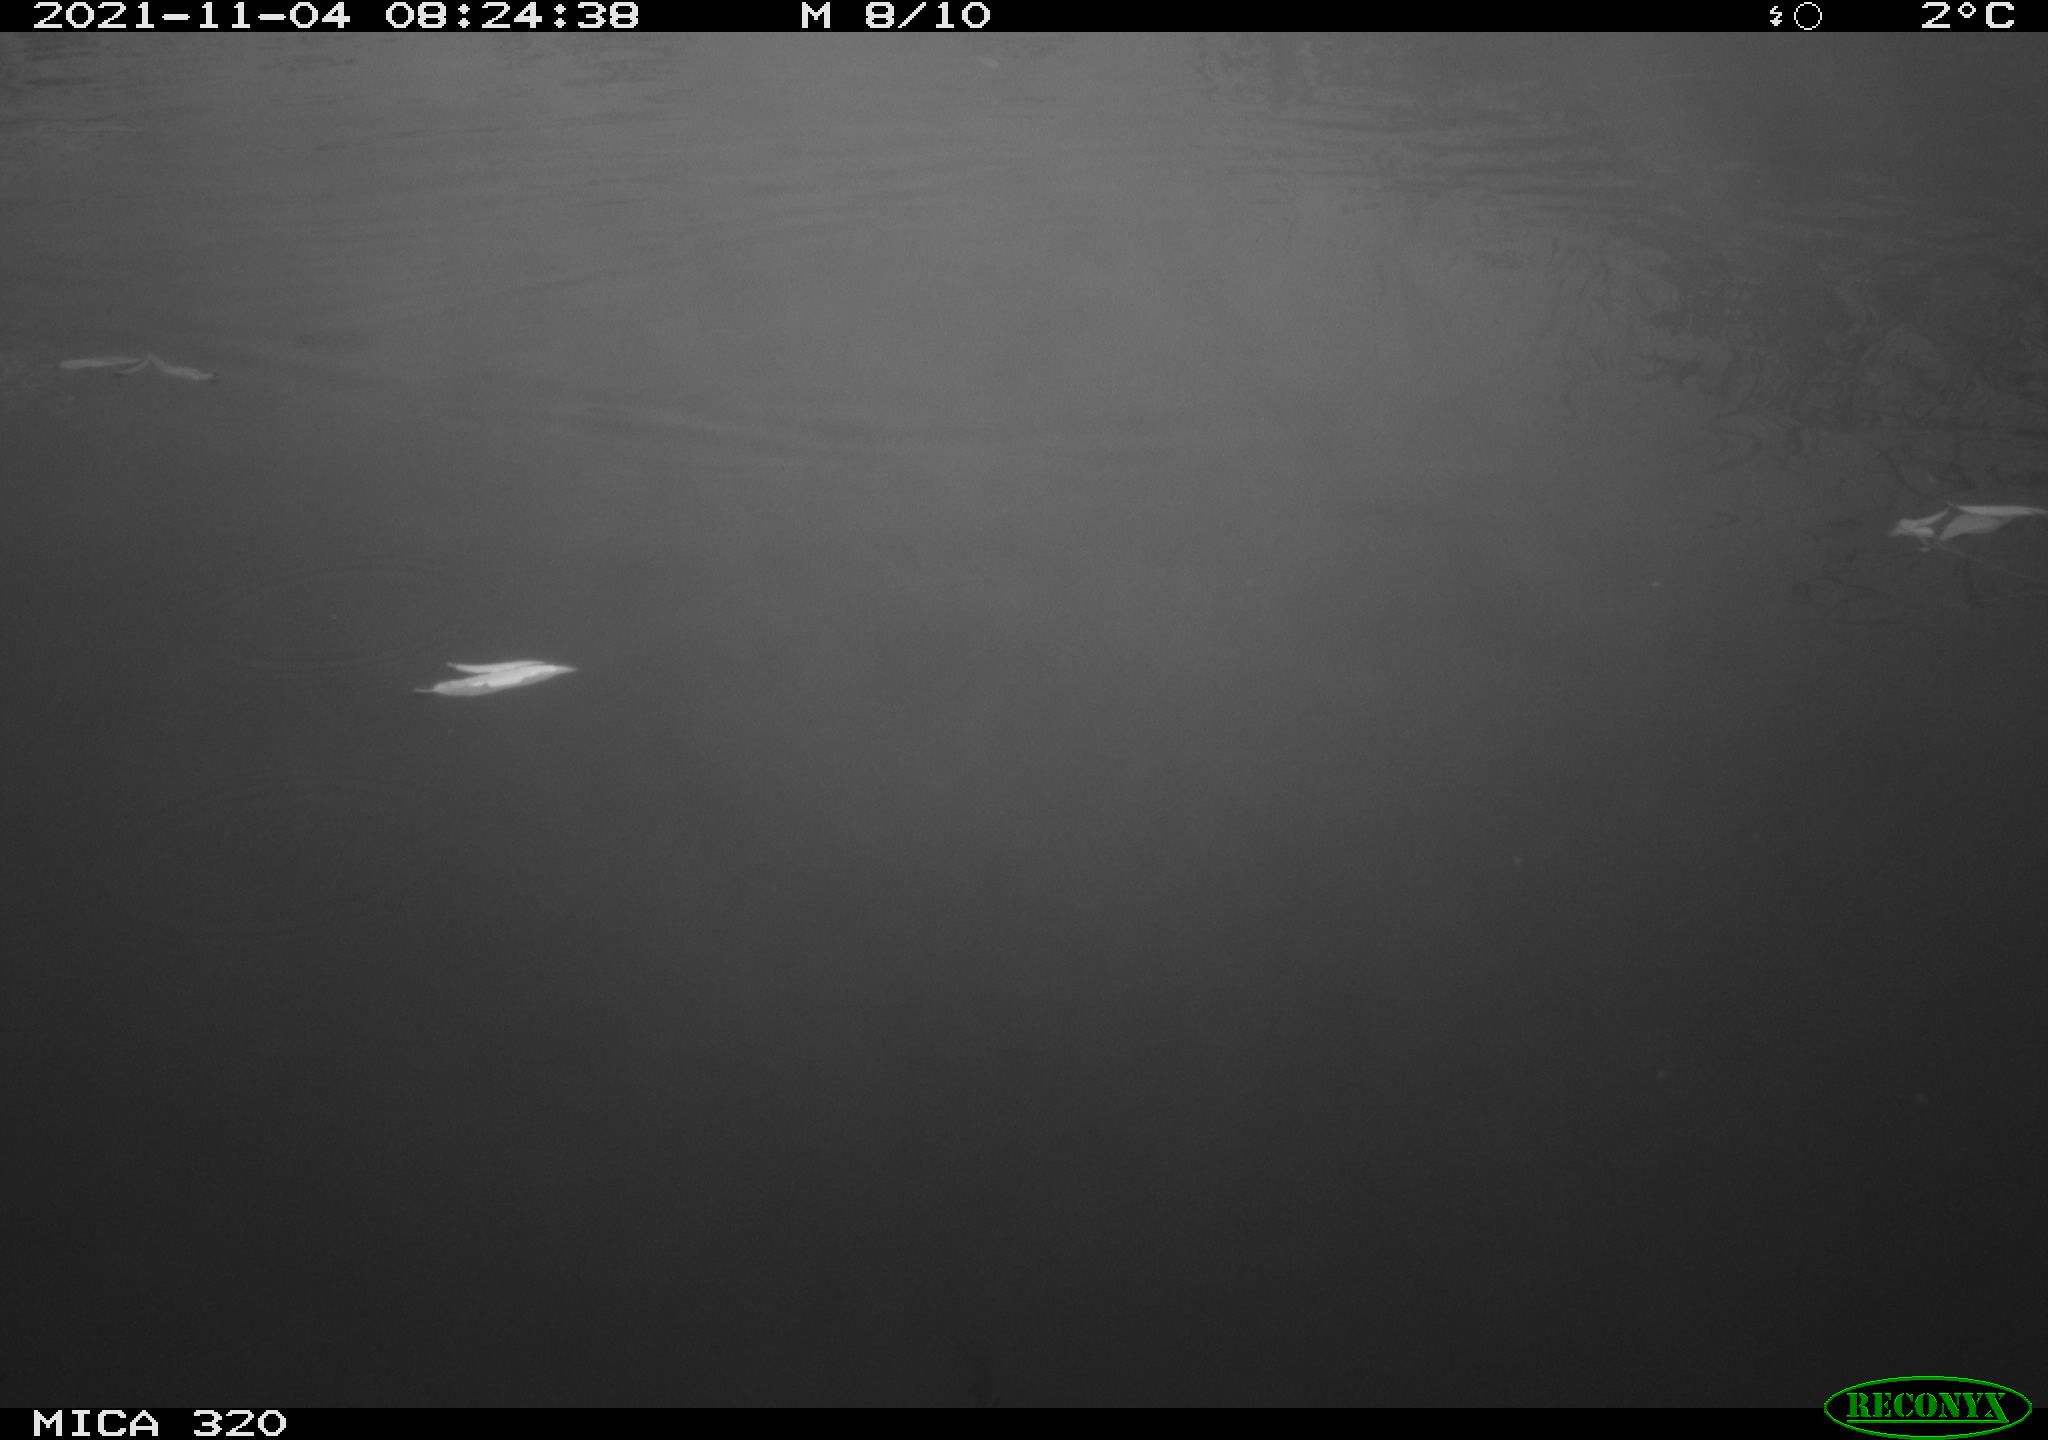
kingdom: Animalia
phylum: Chordata
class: Aves
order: Gruiformes
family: Rallidae
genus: Gallinula
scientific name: Gallinula chloropus
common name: Common moorhen
